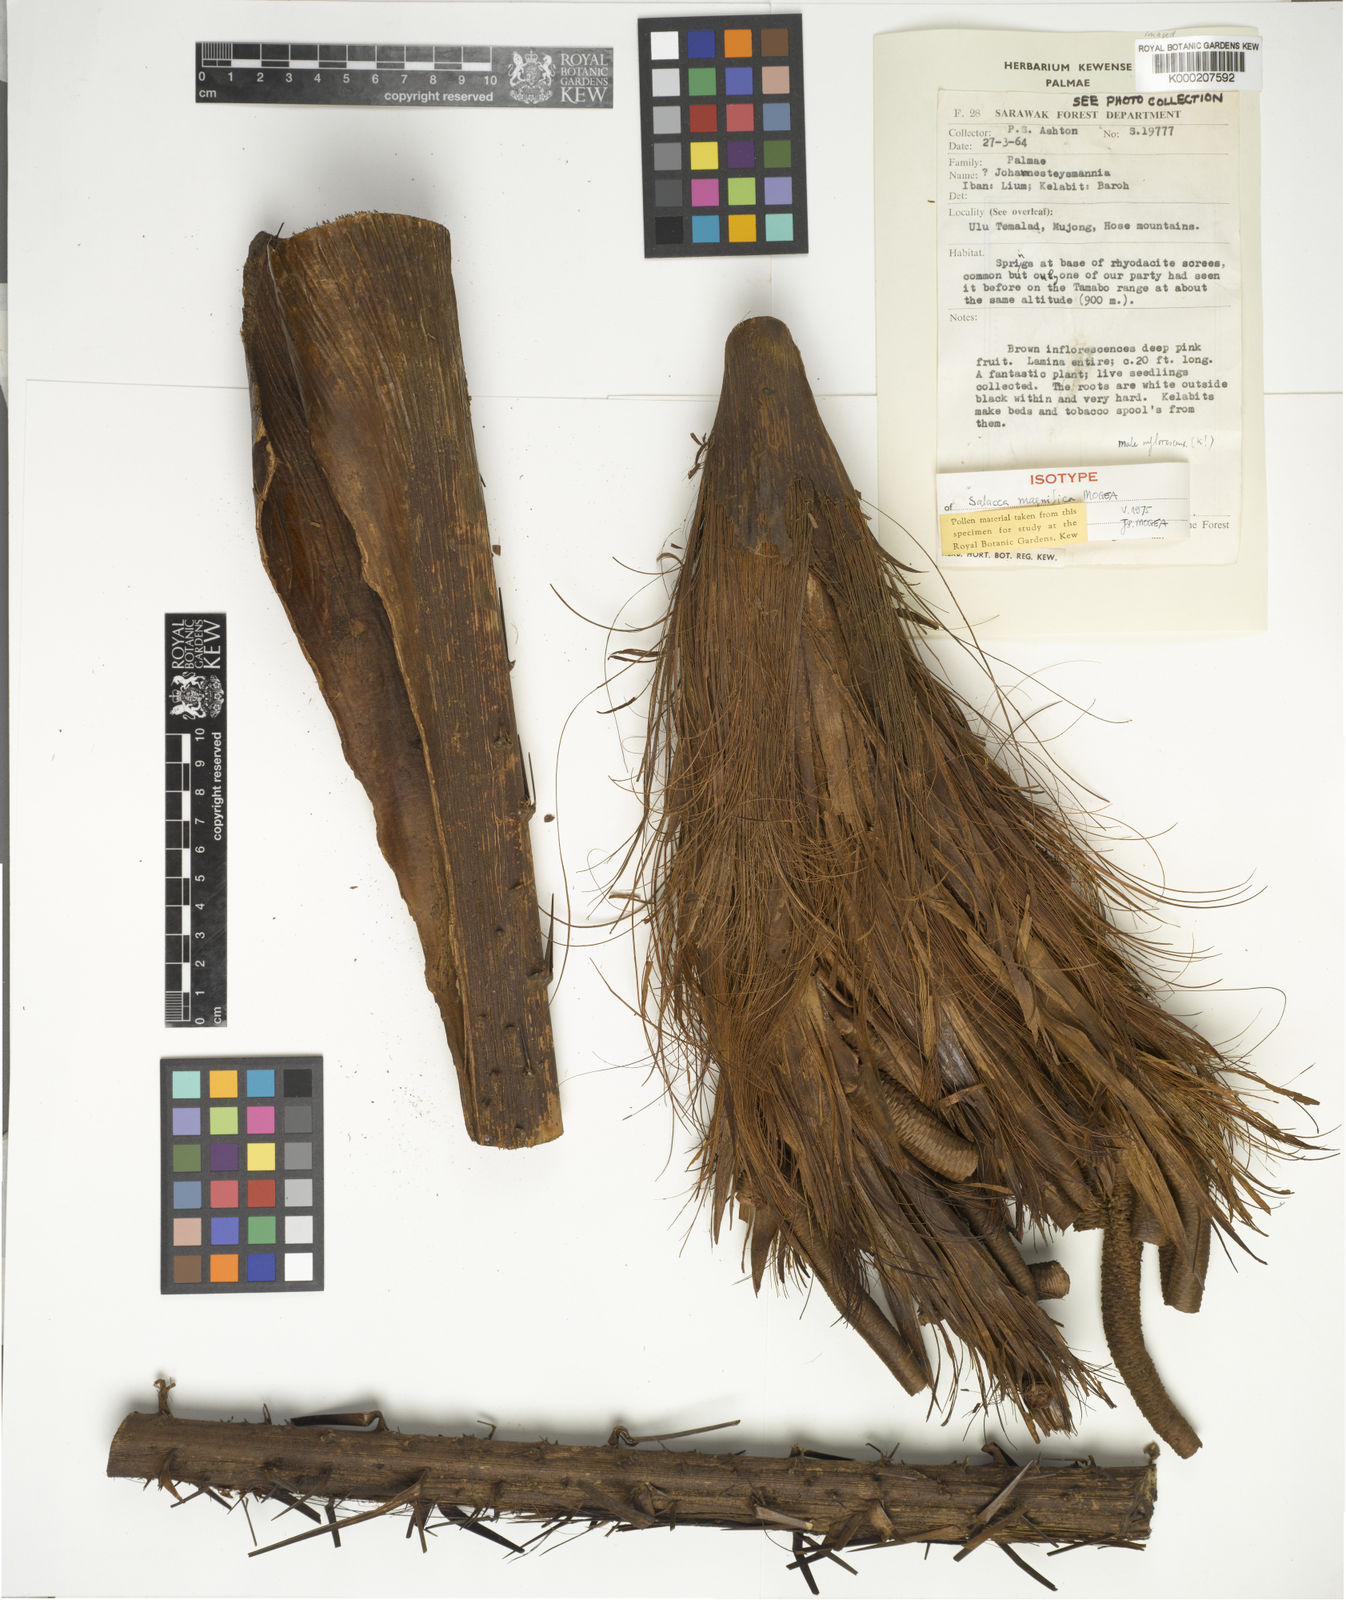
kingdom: Plantae
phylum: Tracheophyta
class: Liliopsida
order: Arecales
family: Arecaceae
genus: Salacca
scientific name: Salacca magnifica
